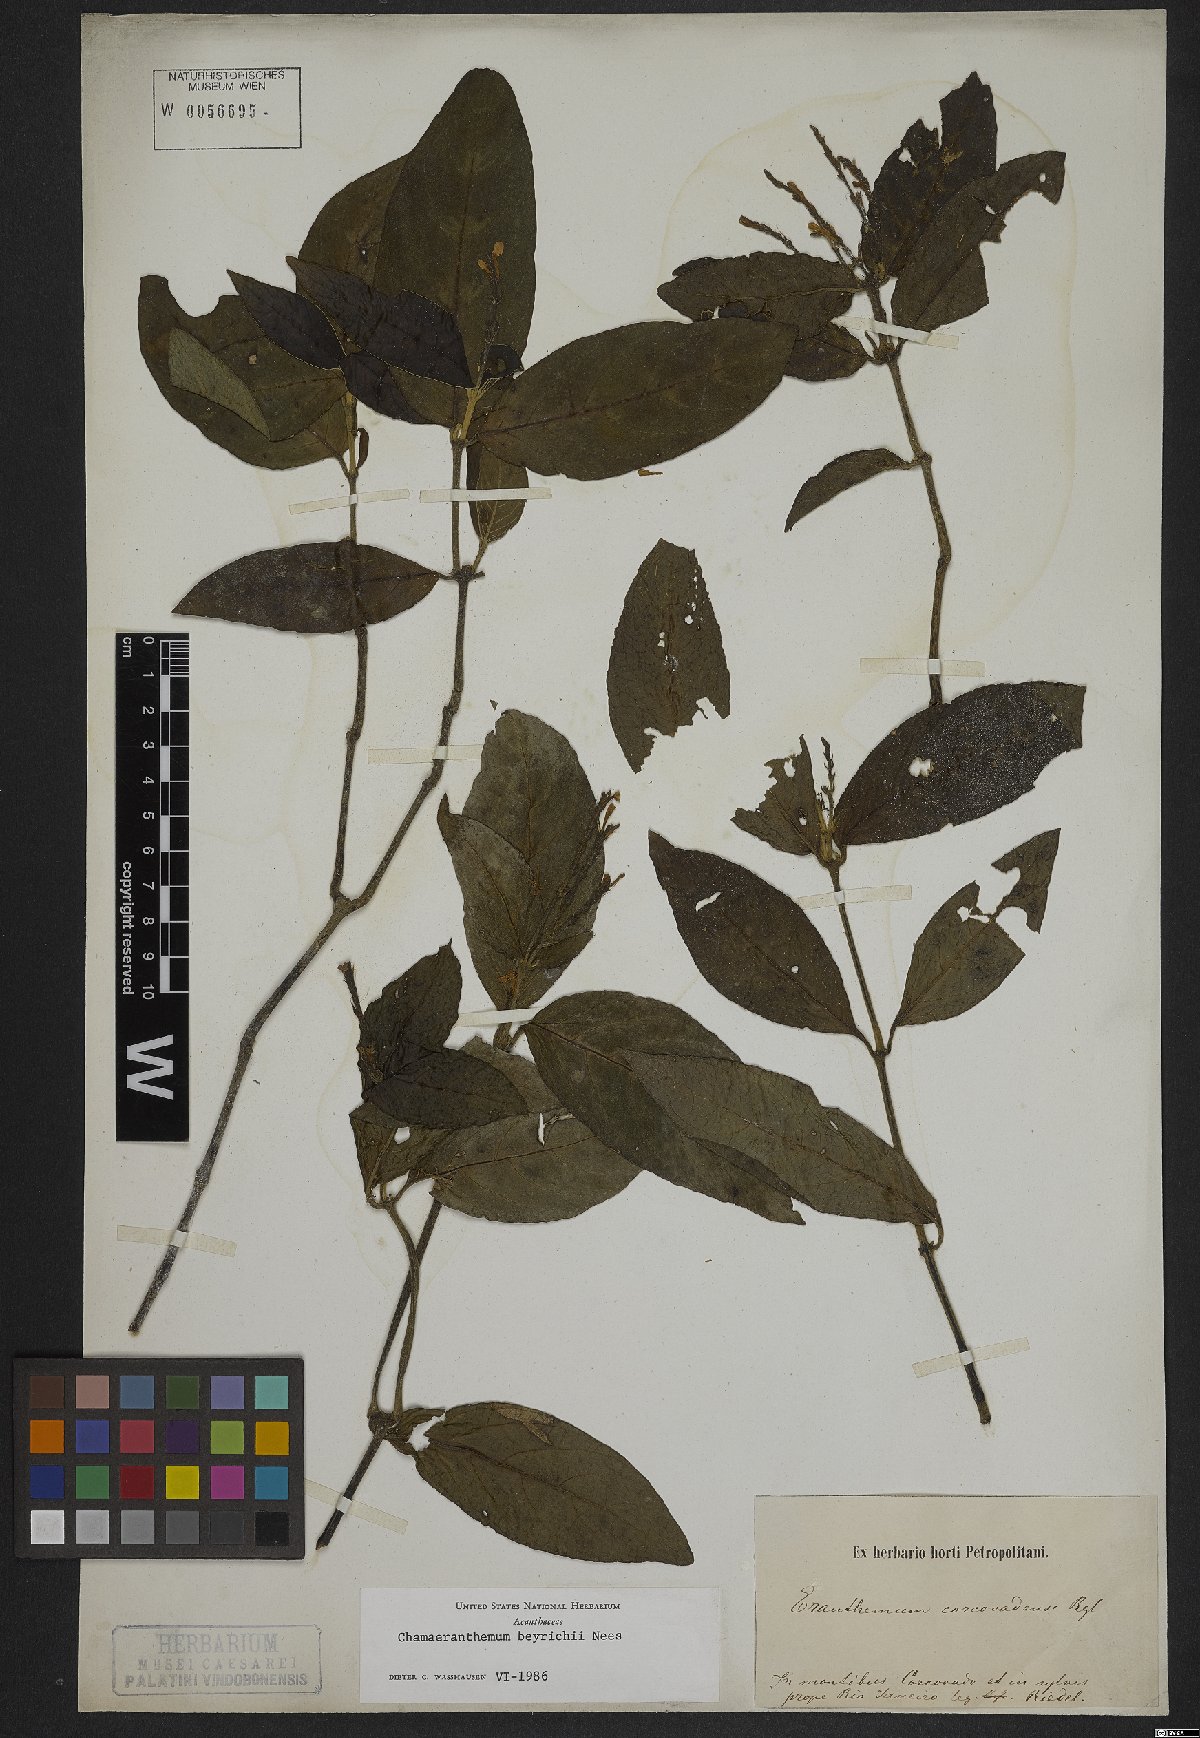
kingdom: Plantae
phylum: Tracheophyta
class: Magnoliopsida
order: Lamiales
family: Acanthaceae
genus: Chamaeranthemum
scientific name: Chamaeranthemum beyrichii
